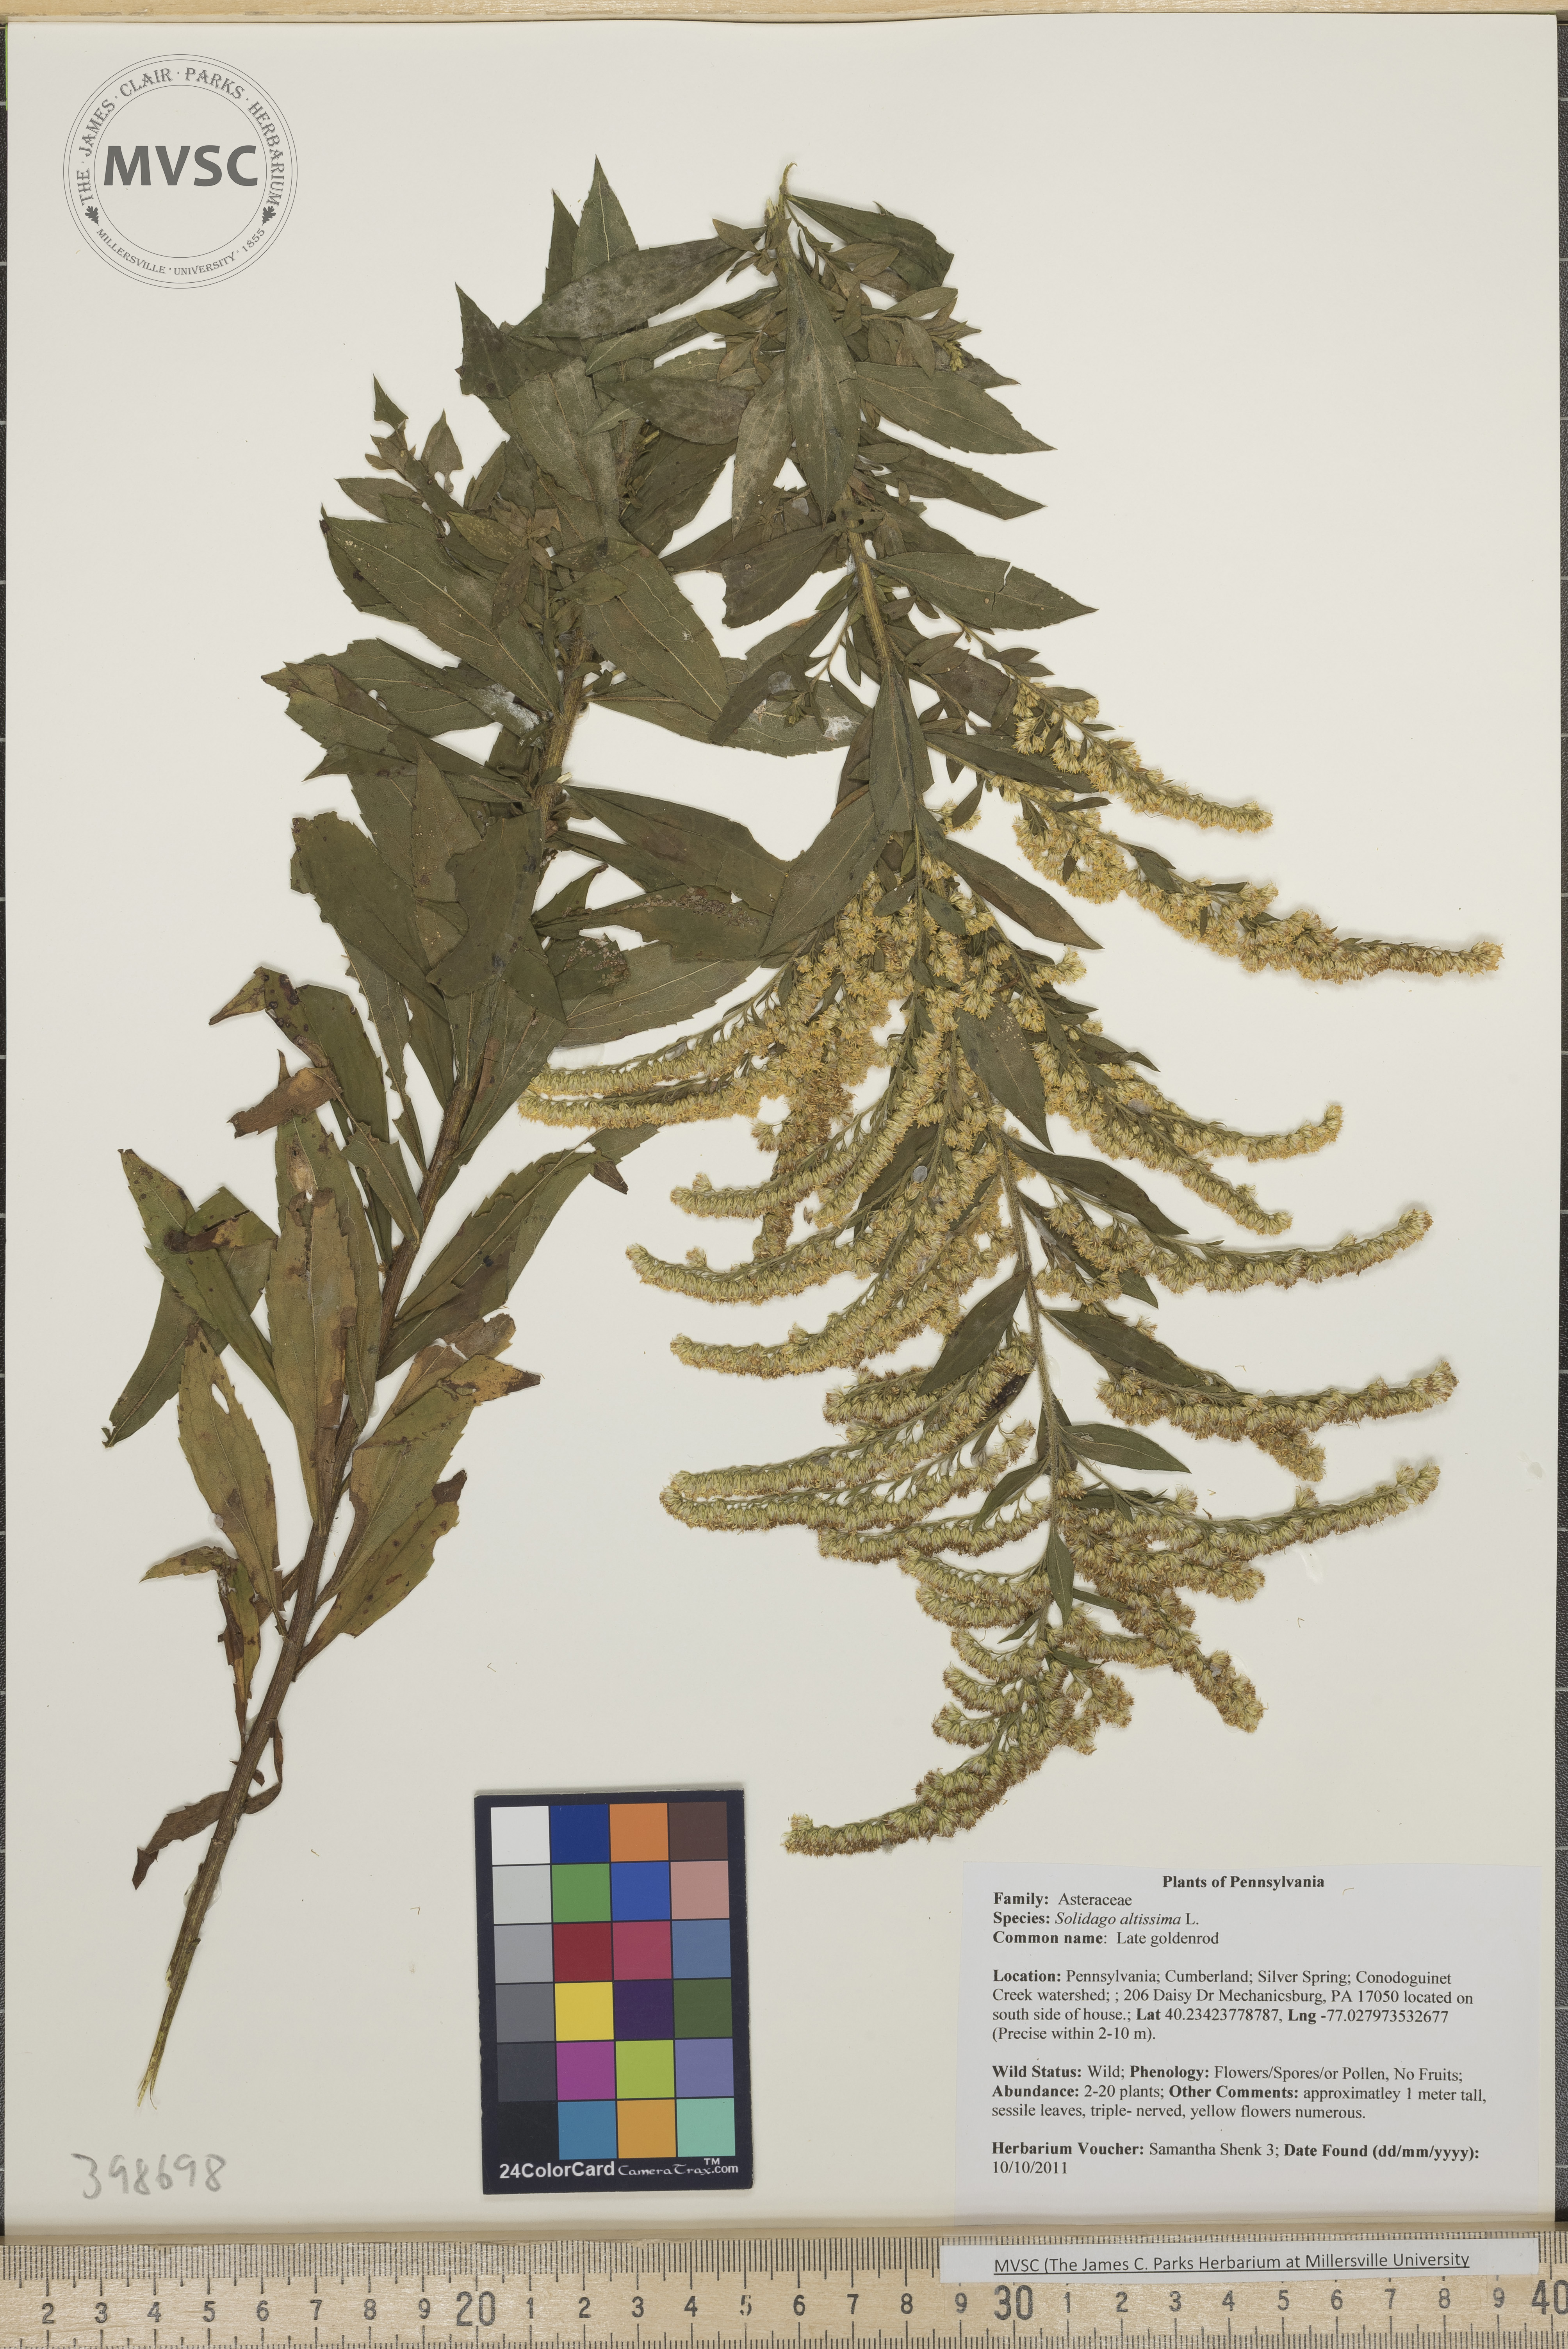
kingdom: Plantae
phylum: Tracheophyta
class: Magnoliopsida
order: Asterales
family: Asteraceae
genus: Solidago
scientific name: Solidago altissima
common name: Late goldenrod
